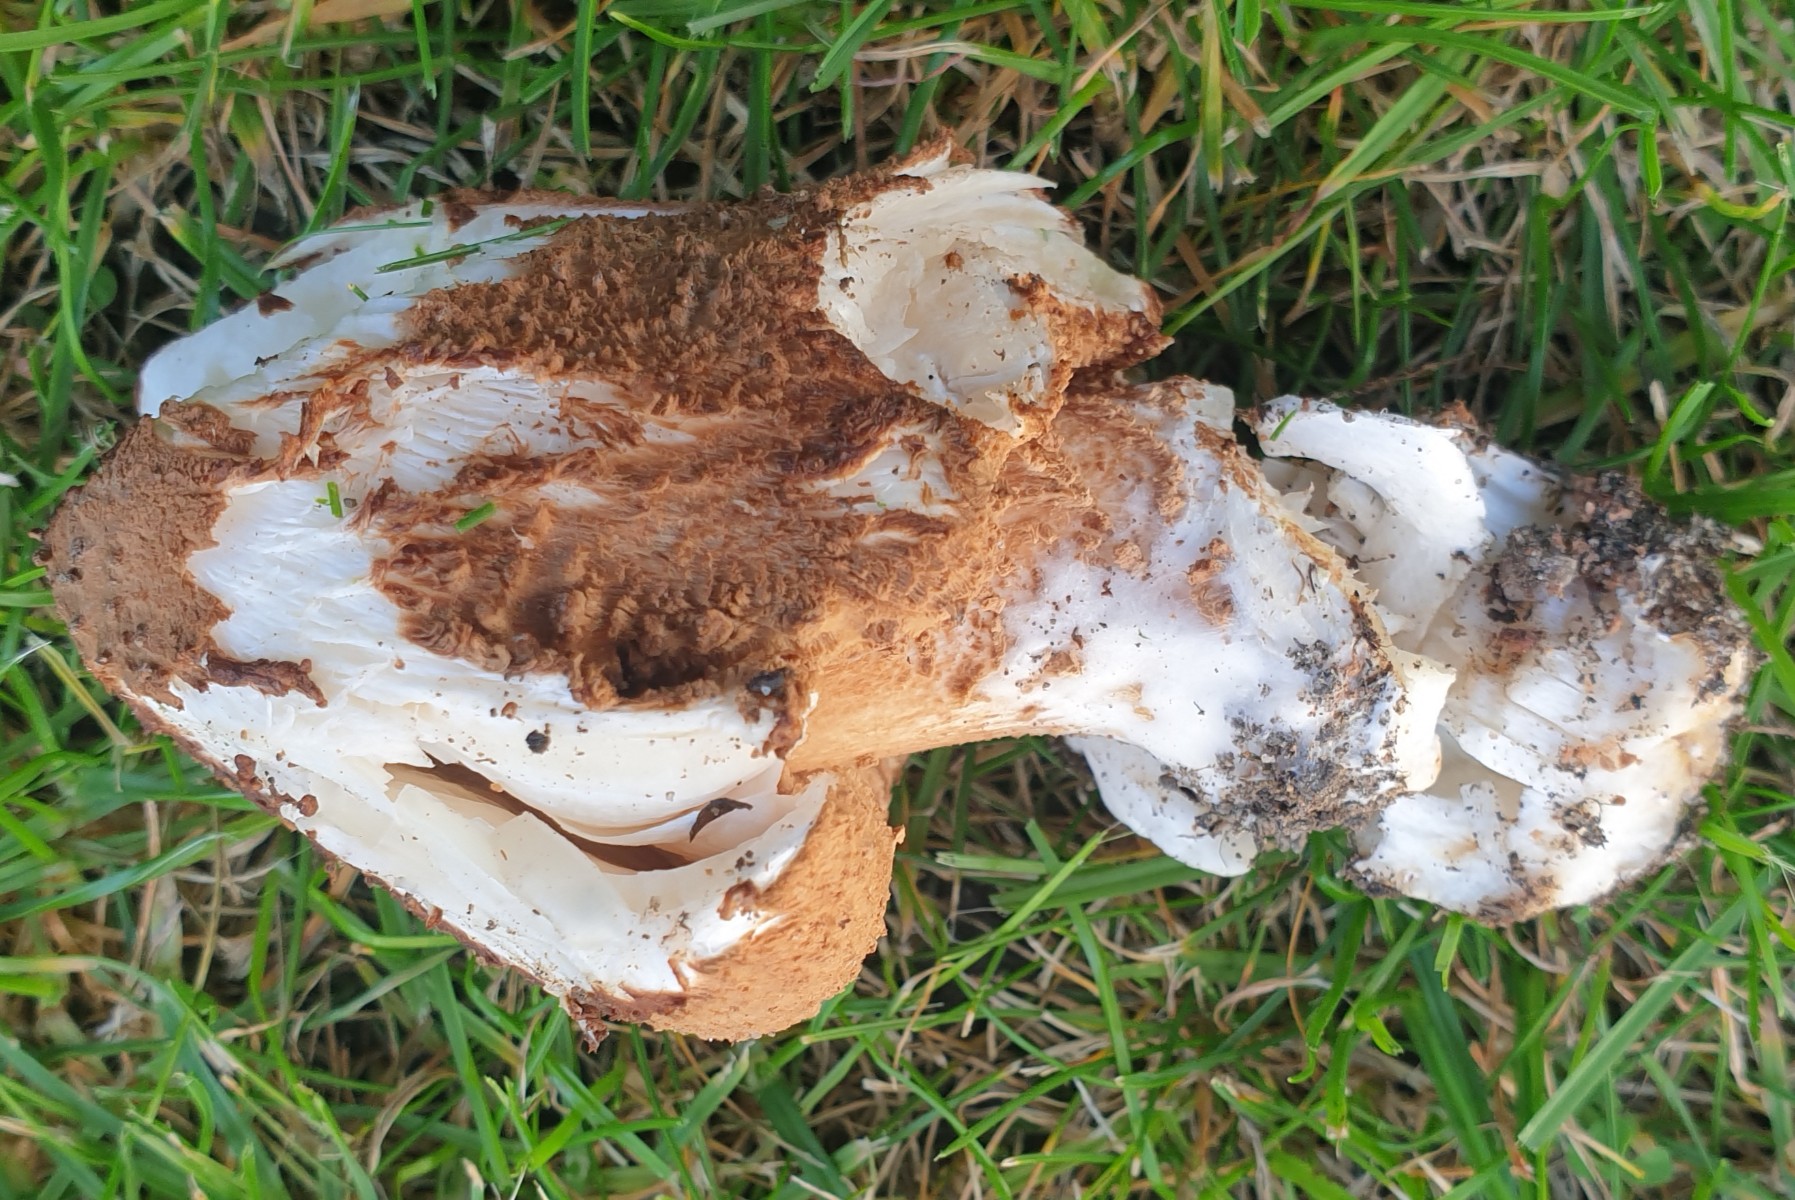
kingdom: Fungi
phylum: Basidiomycota
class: Agaricomycetes
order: Agaricales
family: Agaricaceae
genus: Echinoderma
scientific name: Echinoderma asperum
